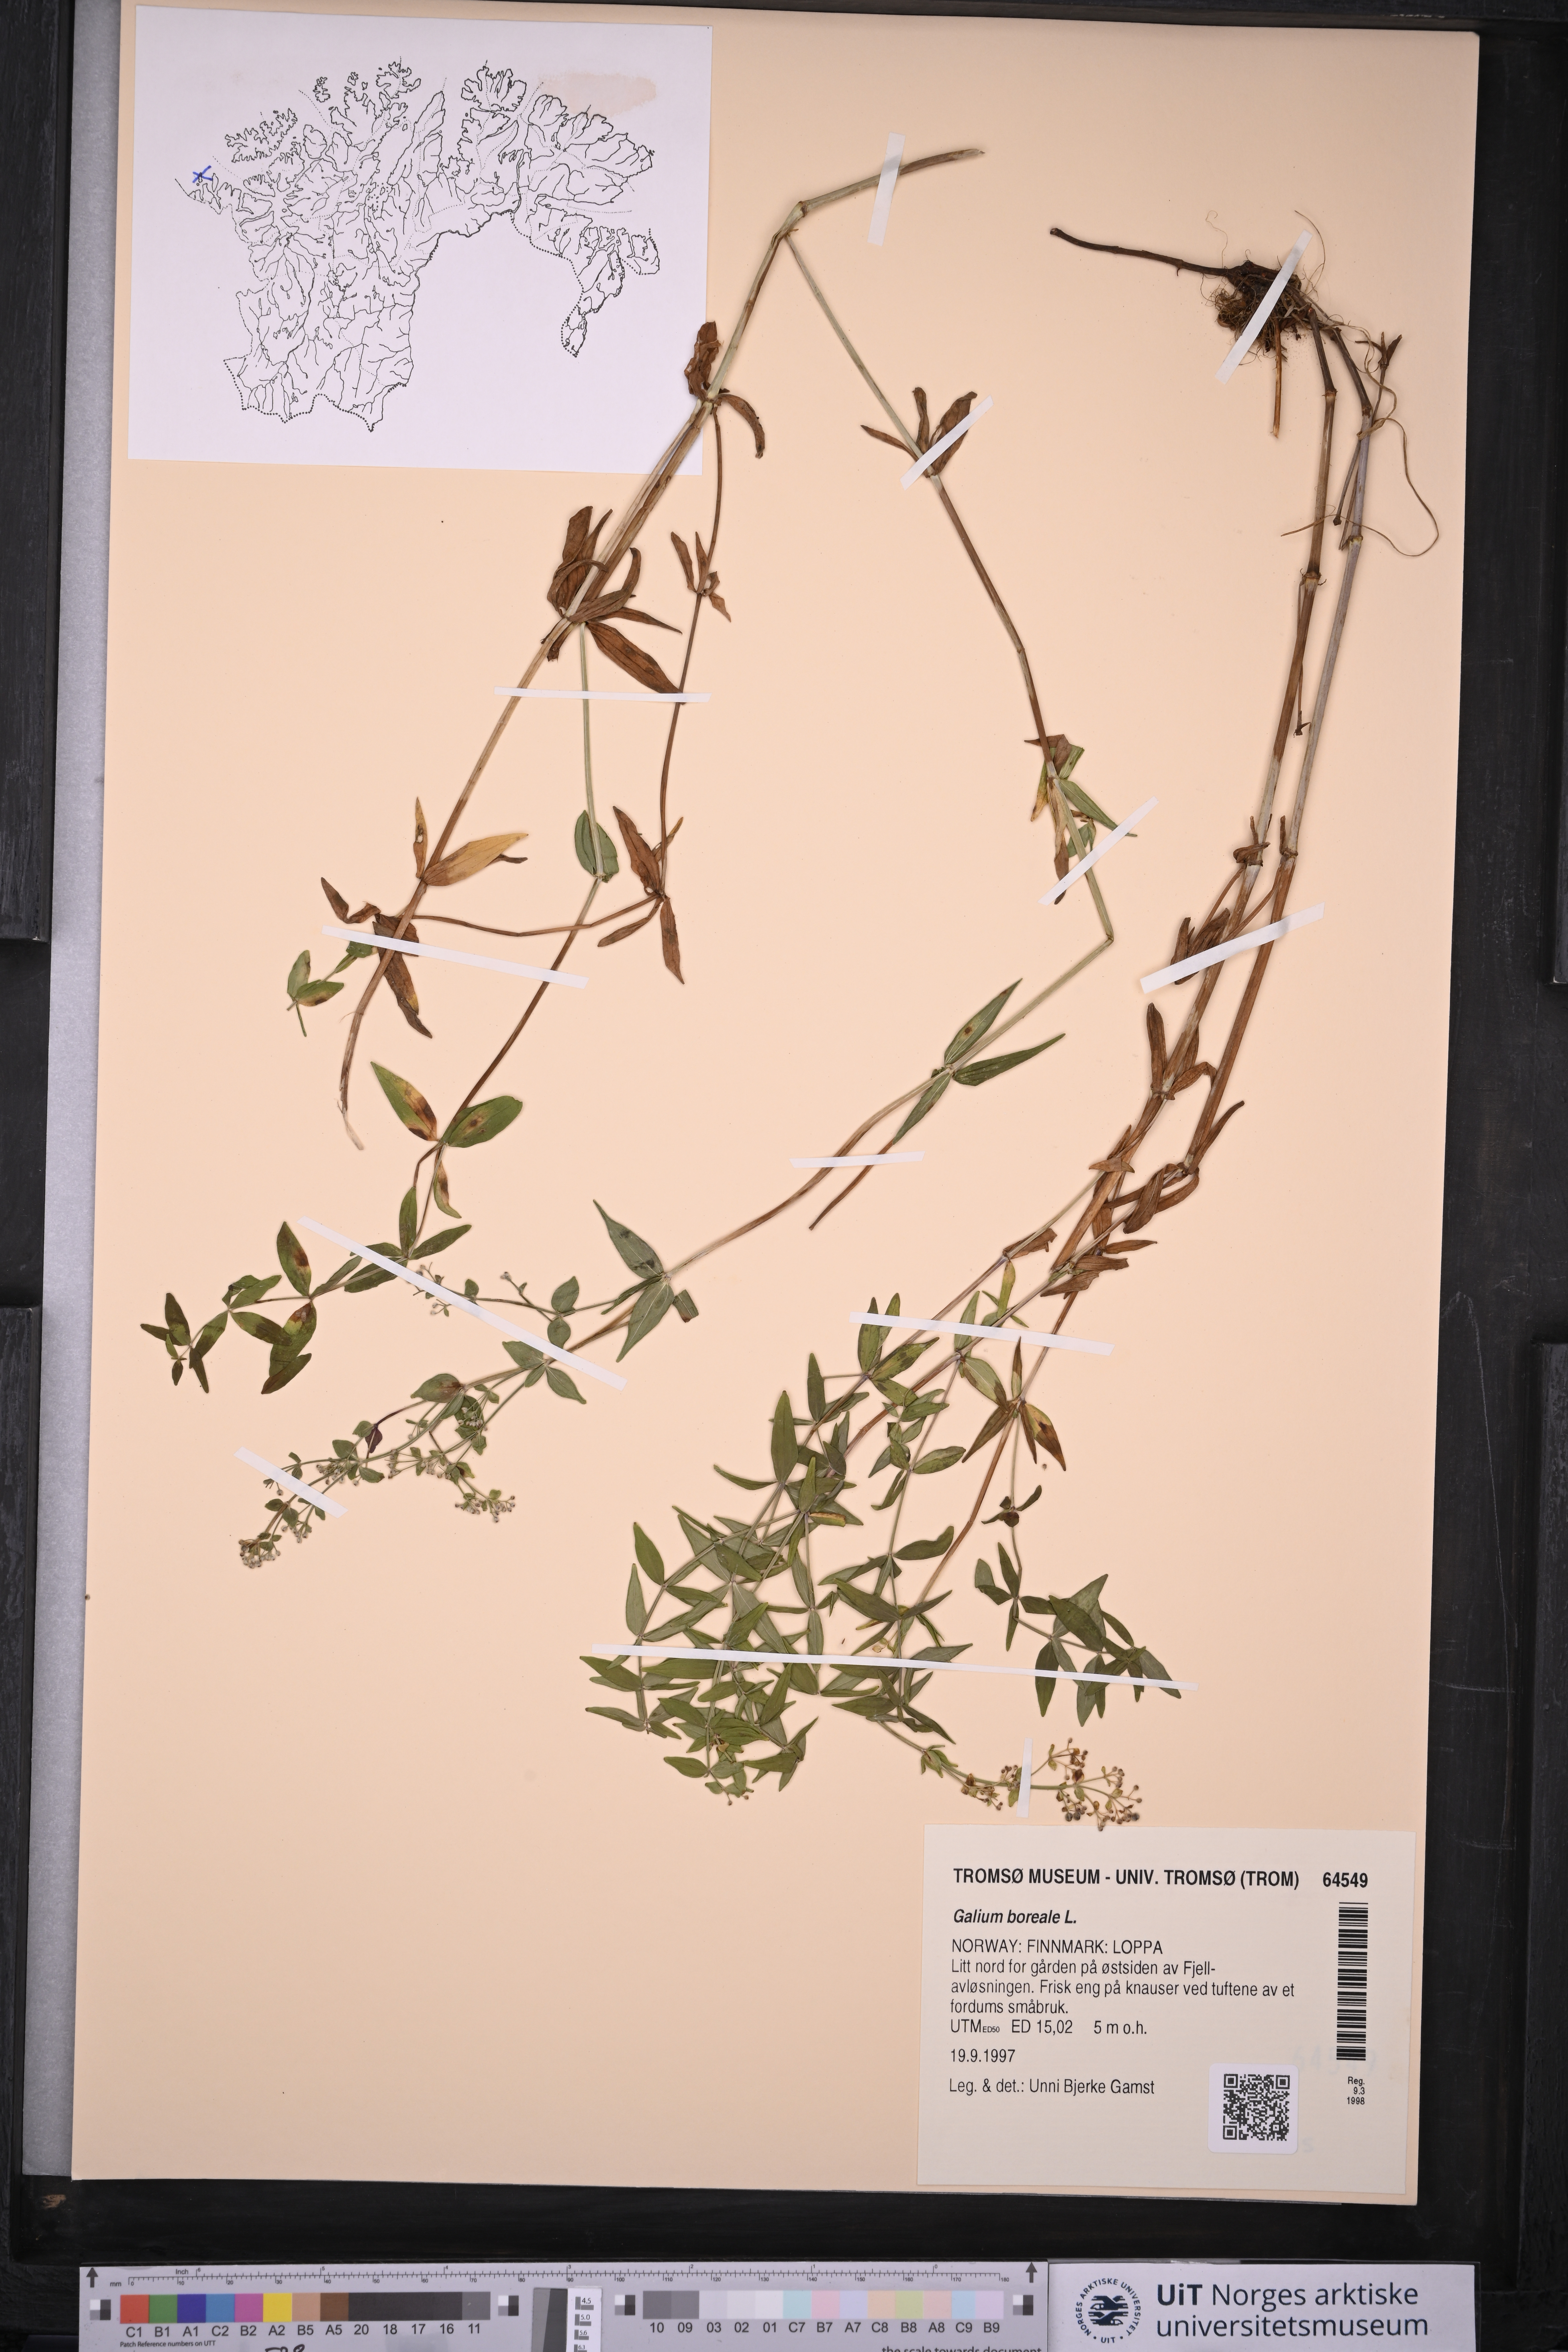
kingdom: Plantae
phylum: Tracheophyta
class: Magnoliopsida
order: Gentianales
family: Rubiaceae
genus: Galium
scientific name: Galium boreale
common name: Northern bedstraw
